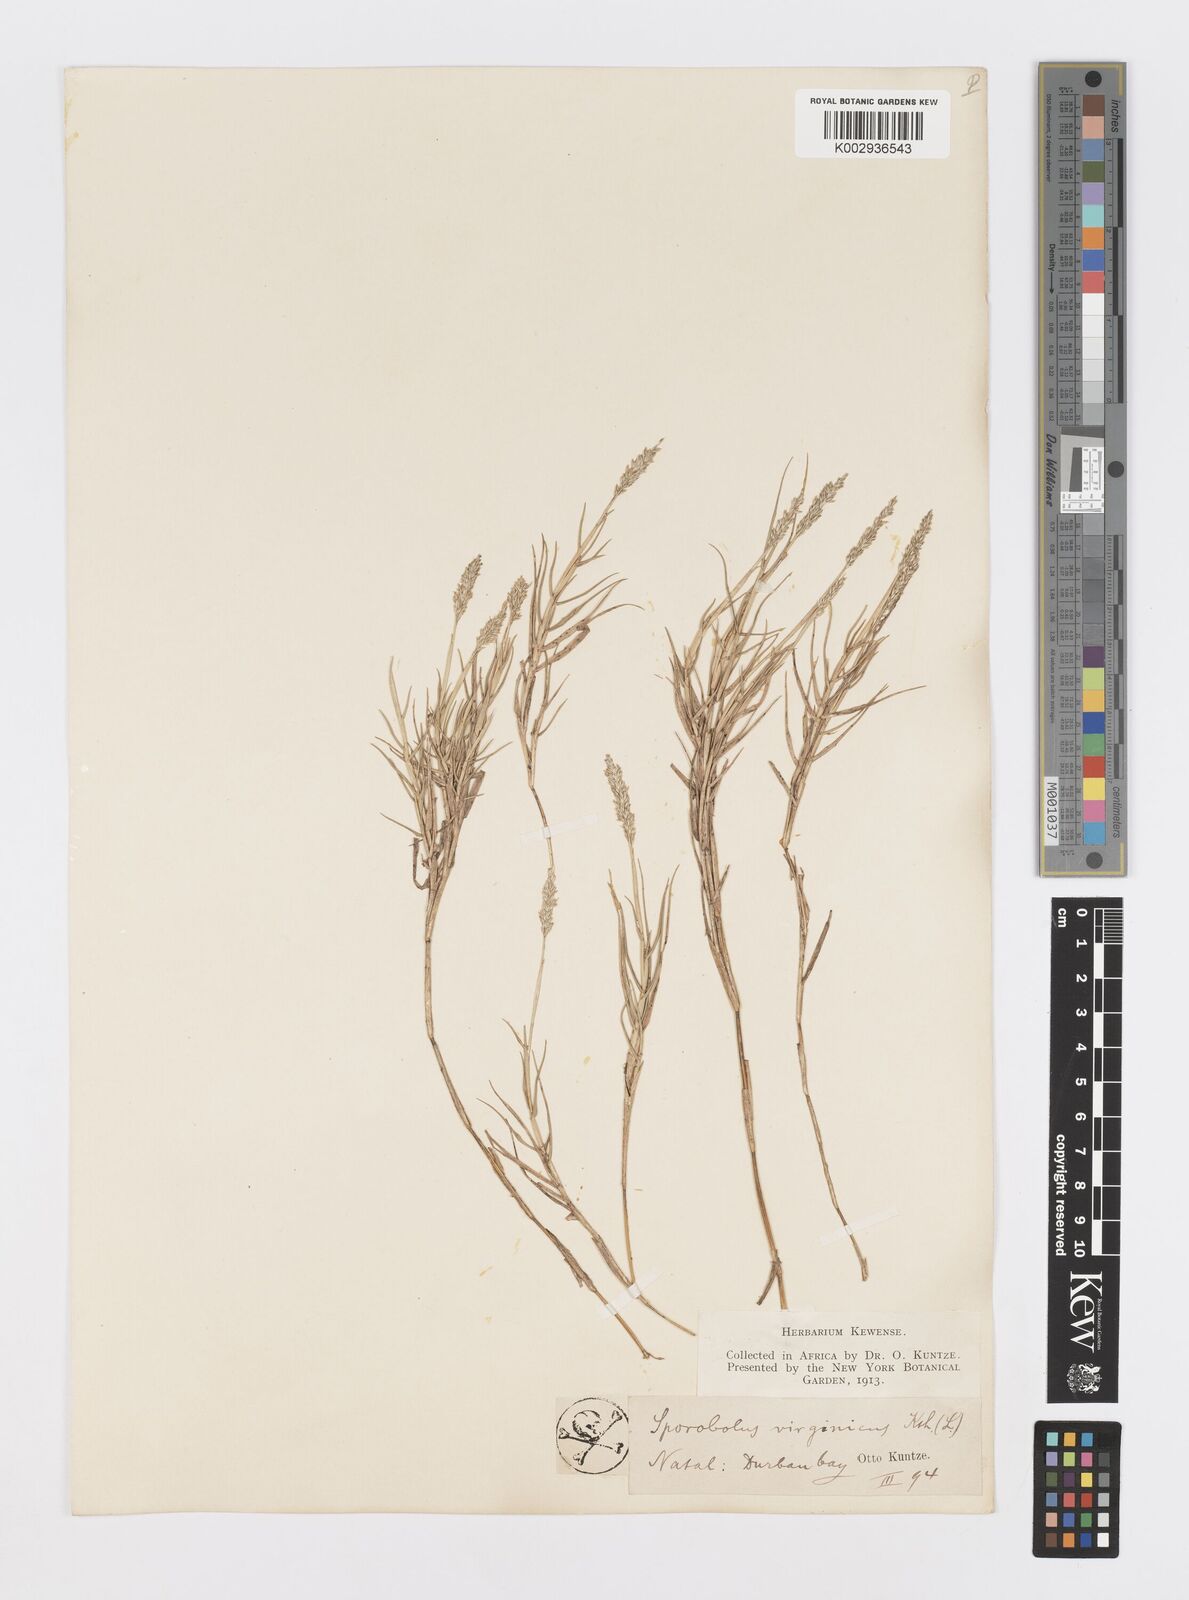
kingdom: Plantae
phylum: Tracheophyta
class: Liliopsida
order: Poales
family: Poaceae
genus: Sporobolus
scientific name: Sporobolus virginicus
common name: Beach dropseed
